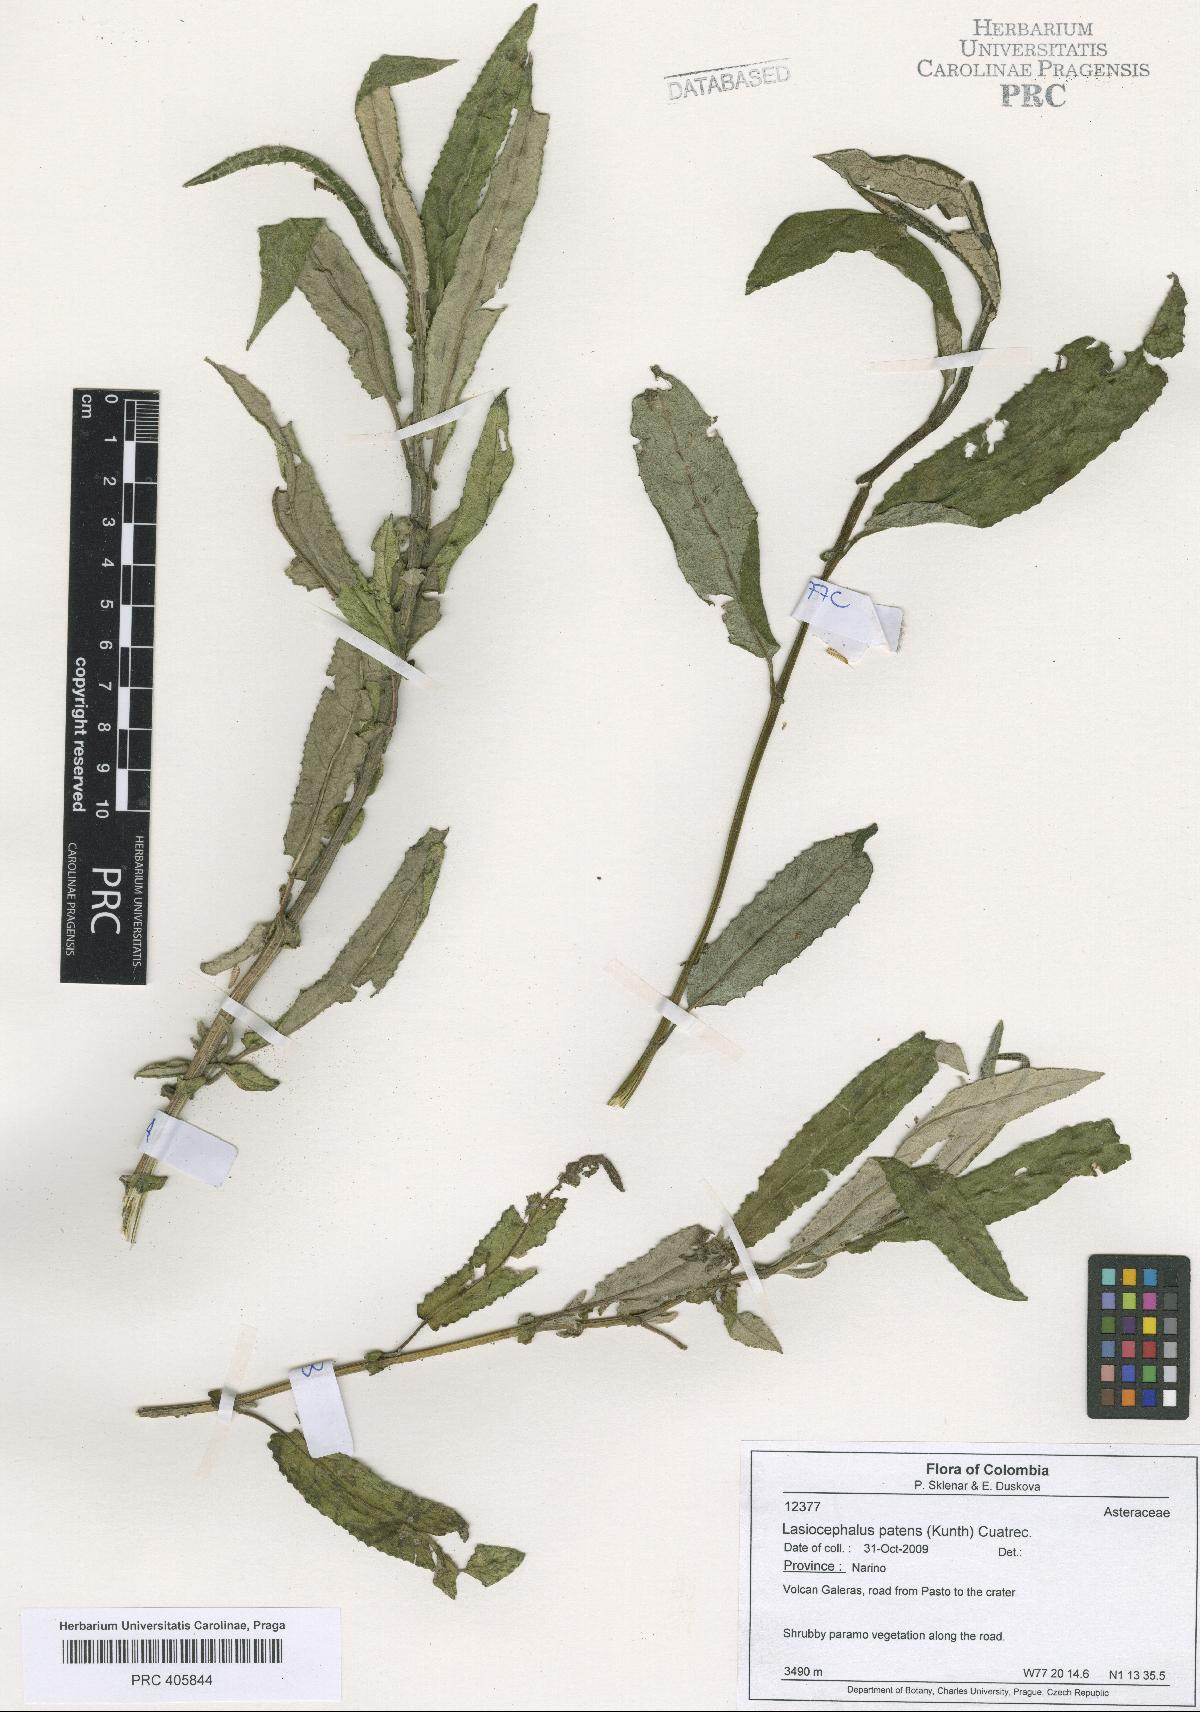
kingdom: Plantae
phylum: Tracheophyta
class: Magnoliopsida
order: Asterales
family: Asteraceae
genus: Aetheolaena
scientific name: Aetheolaena patens
